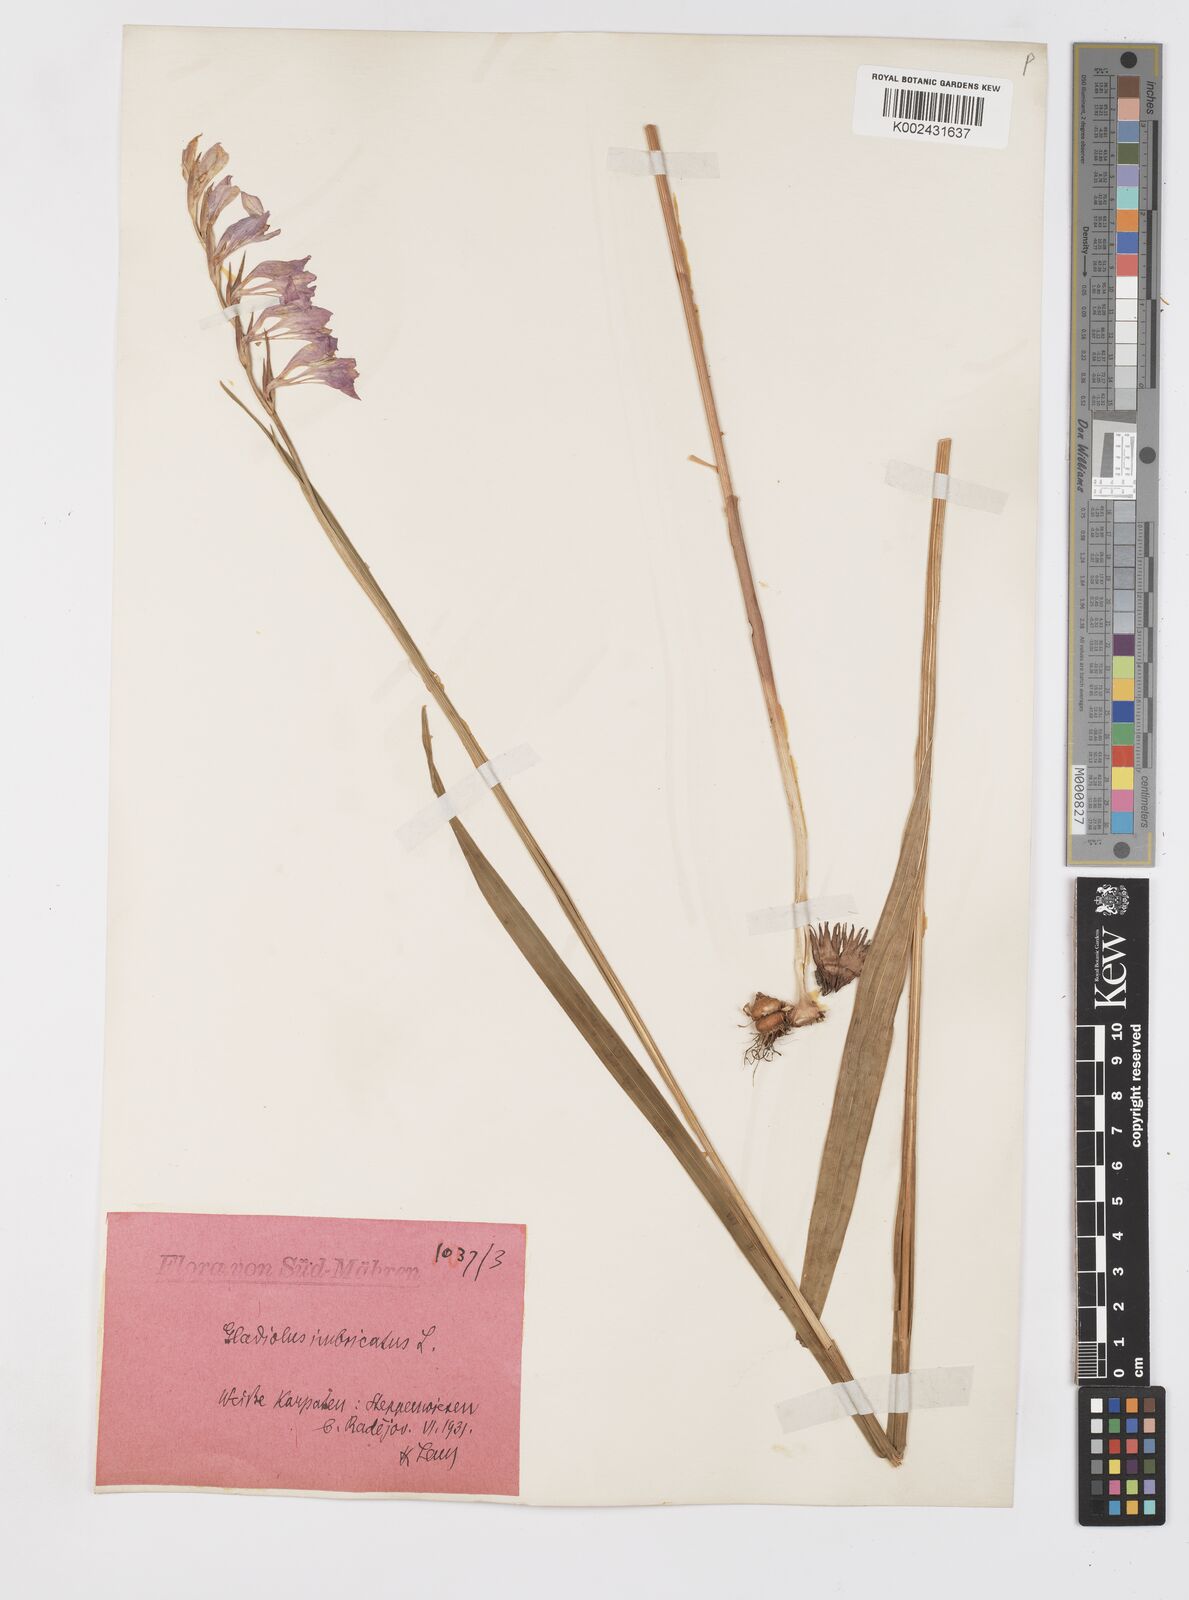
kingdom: Plantae
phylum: Tracheophyta
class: Liliopsida
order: Asparagales
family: Iridaceae
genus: Gladiolus
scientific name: Gladiolus imbricatus
